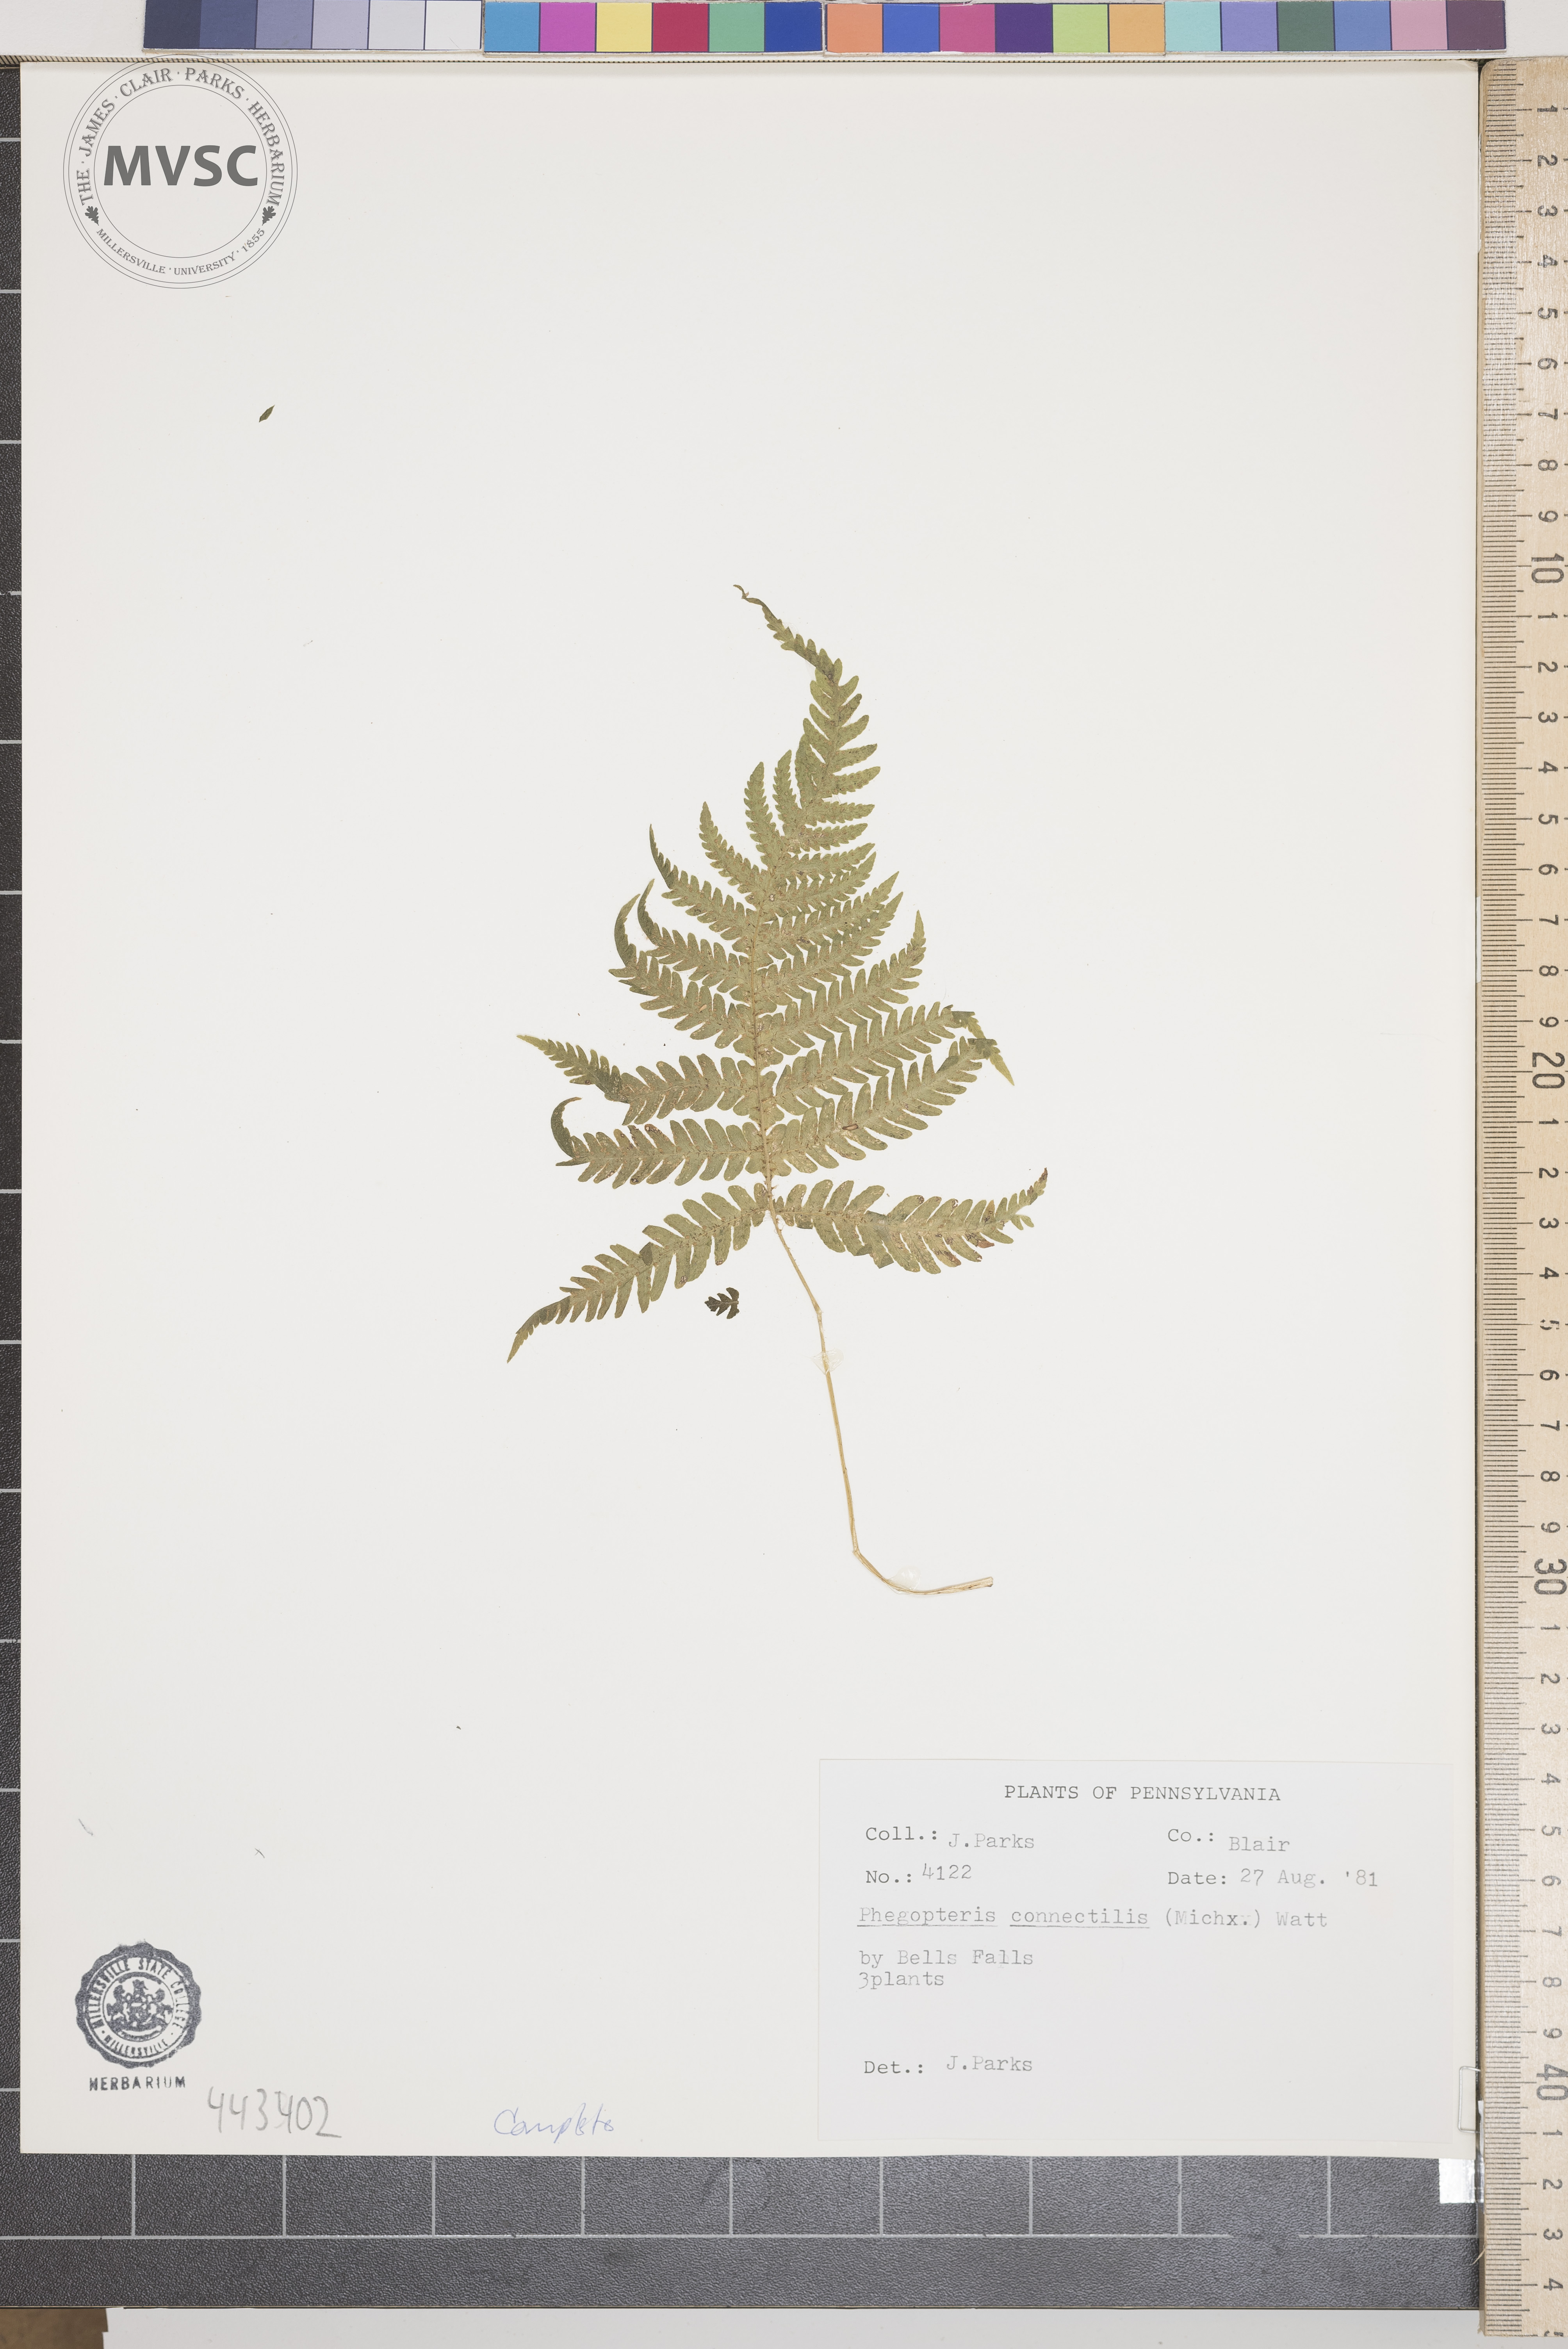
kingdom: Plantae
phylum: Tracheophyta
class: Polypodiopsida
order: Polypodiales
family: Thelypteridaceae
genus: Phegopteris
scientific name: Phegopteris connectilis
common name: Beech fern
